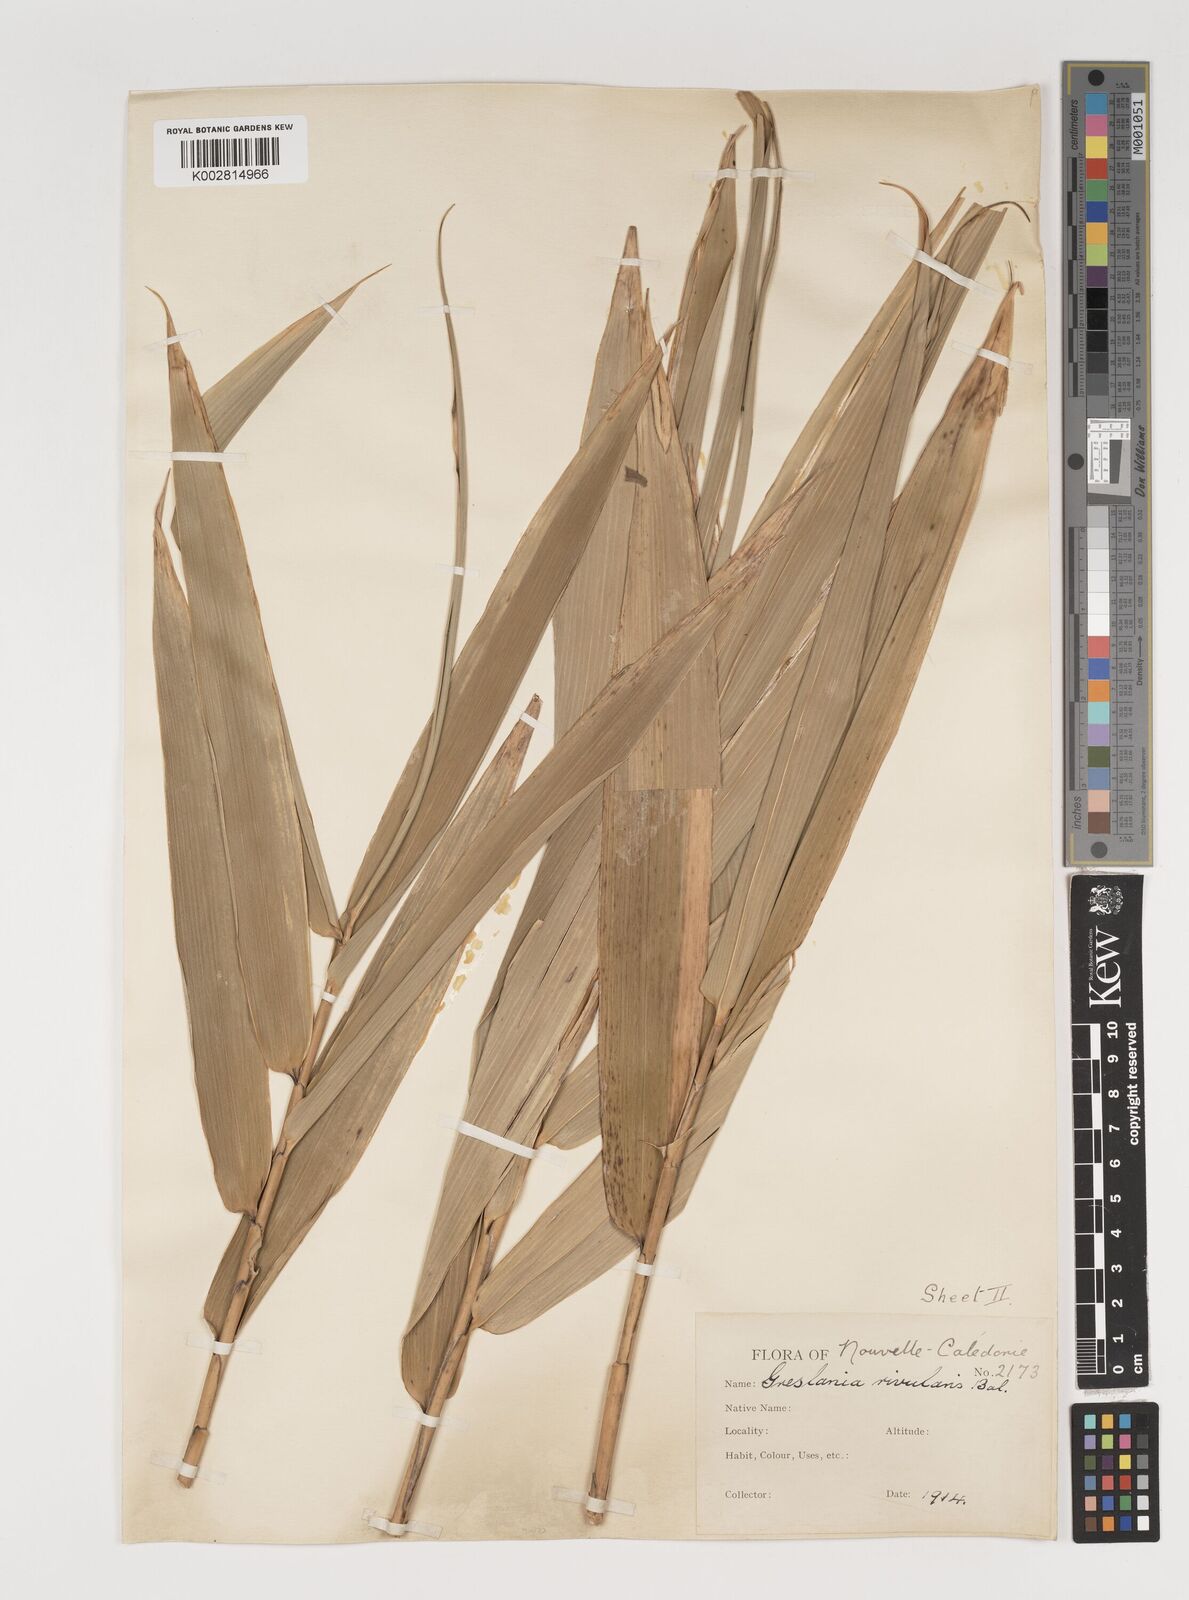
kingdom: Plantae
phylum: Tracheophyta
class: Liliopsida
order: Poales
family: Poaceae
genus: Greslania
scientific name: Greslania rivularis
